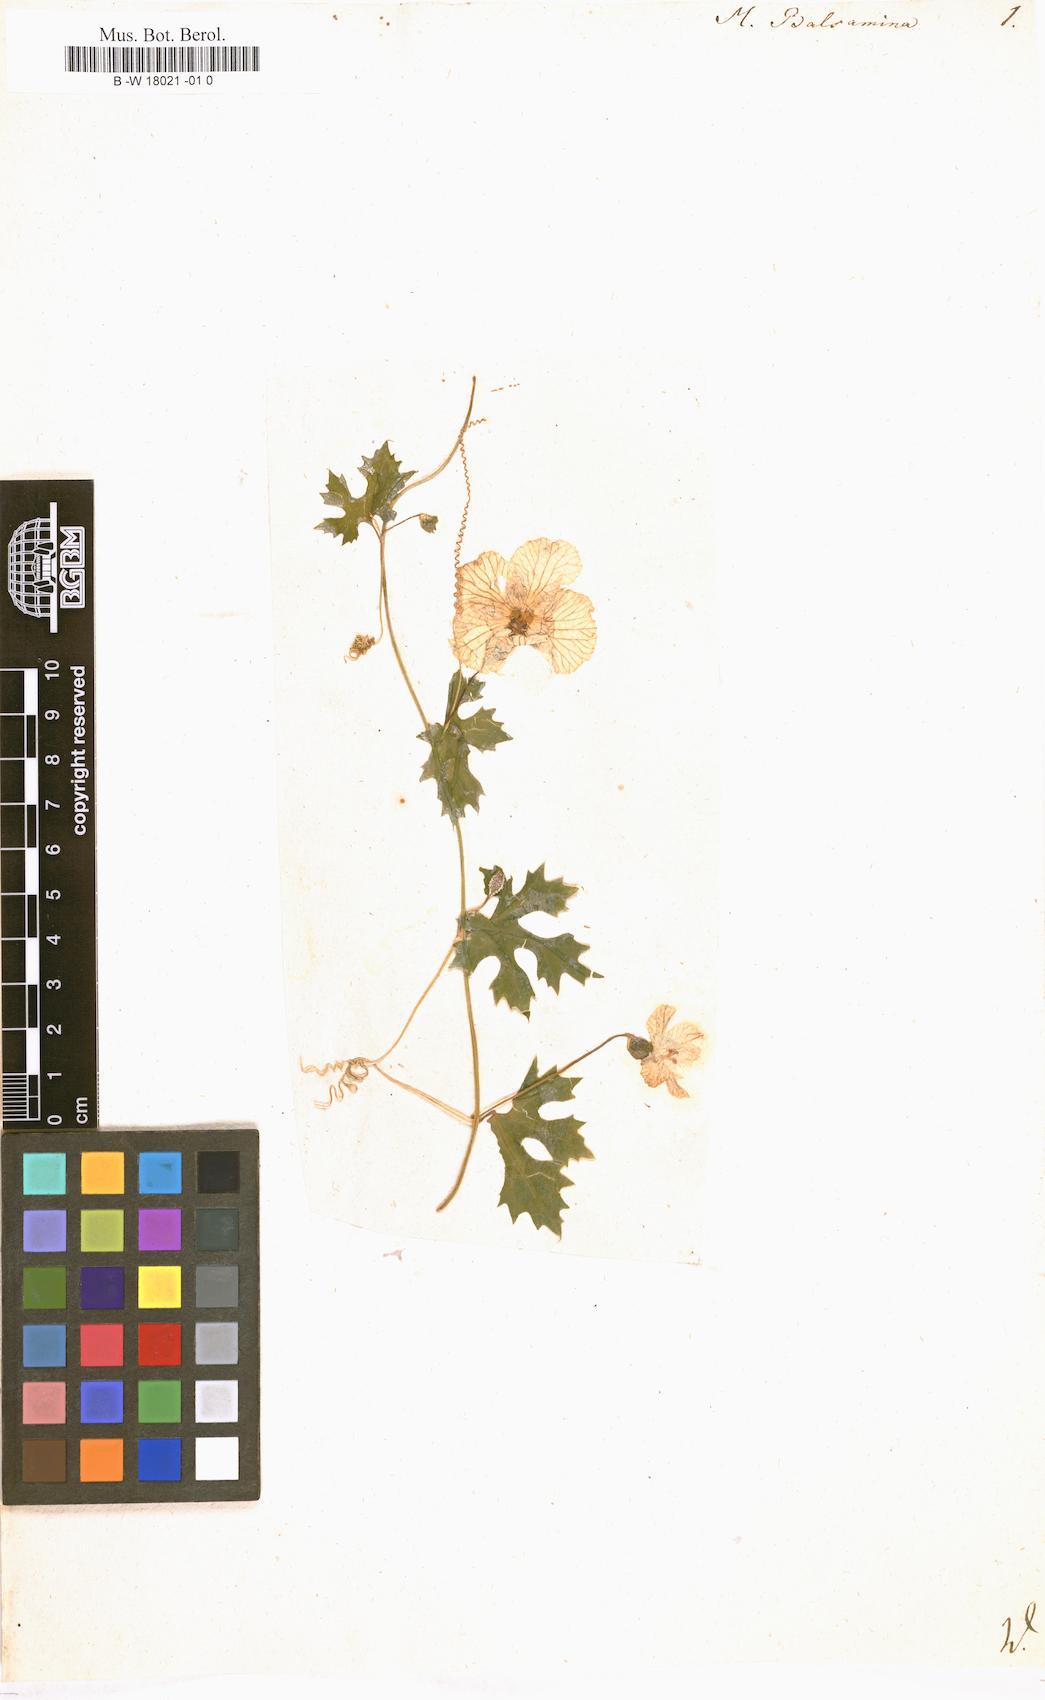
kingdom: Plantae
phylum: Tracheophyta
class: Magnoliopsida
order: Cucurbitales
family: Cucurbitaceae
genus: Momordica
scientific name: Momordica balsamina
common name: Southern balsampear
